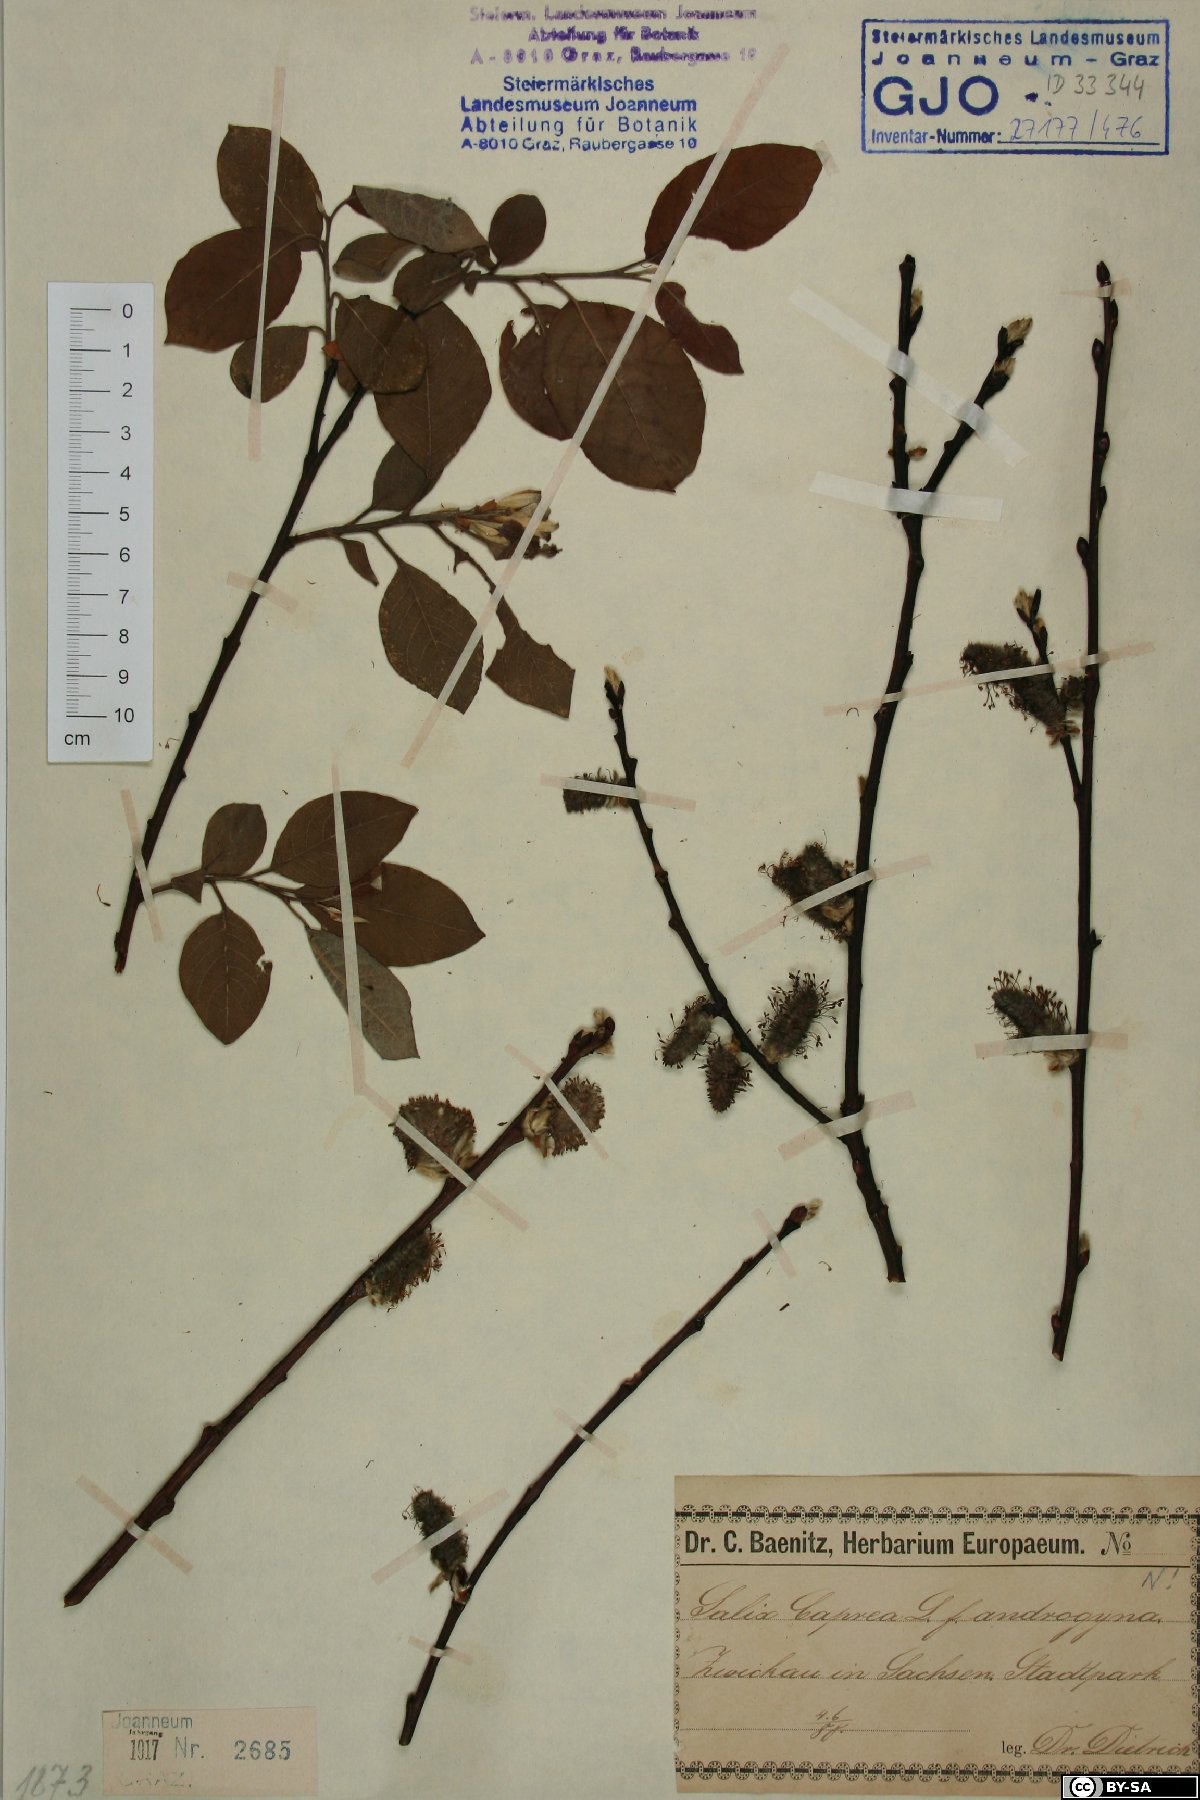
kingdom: Plantae
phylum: Tracheophyta
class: Magnoliopsida
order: Malpighiales
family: Salicaceae
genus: Salix
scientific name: Salix caprea
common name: Goat willow
